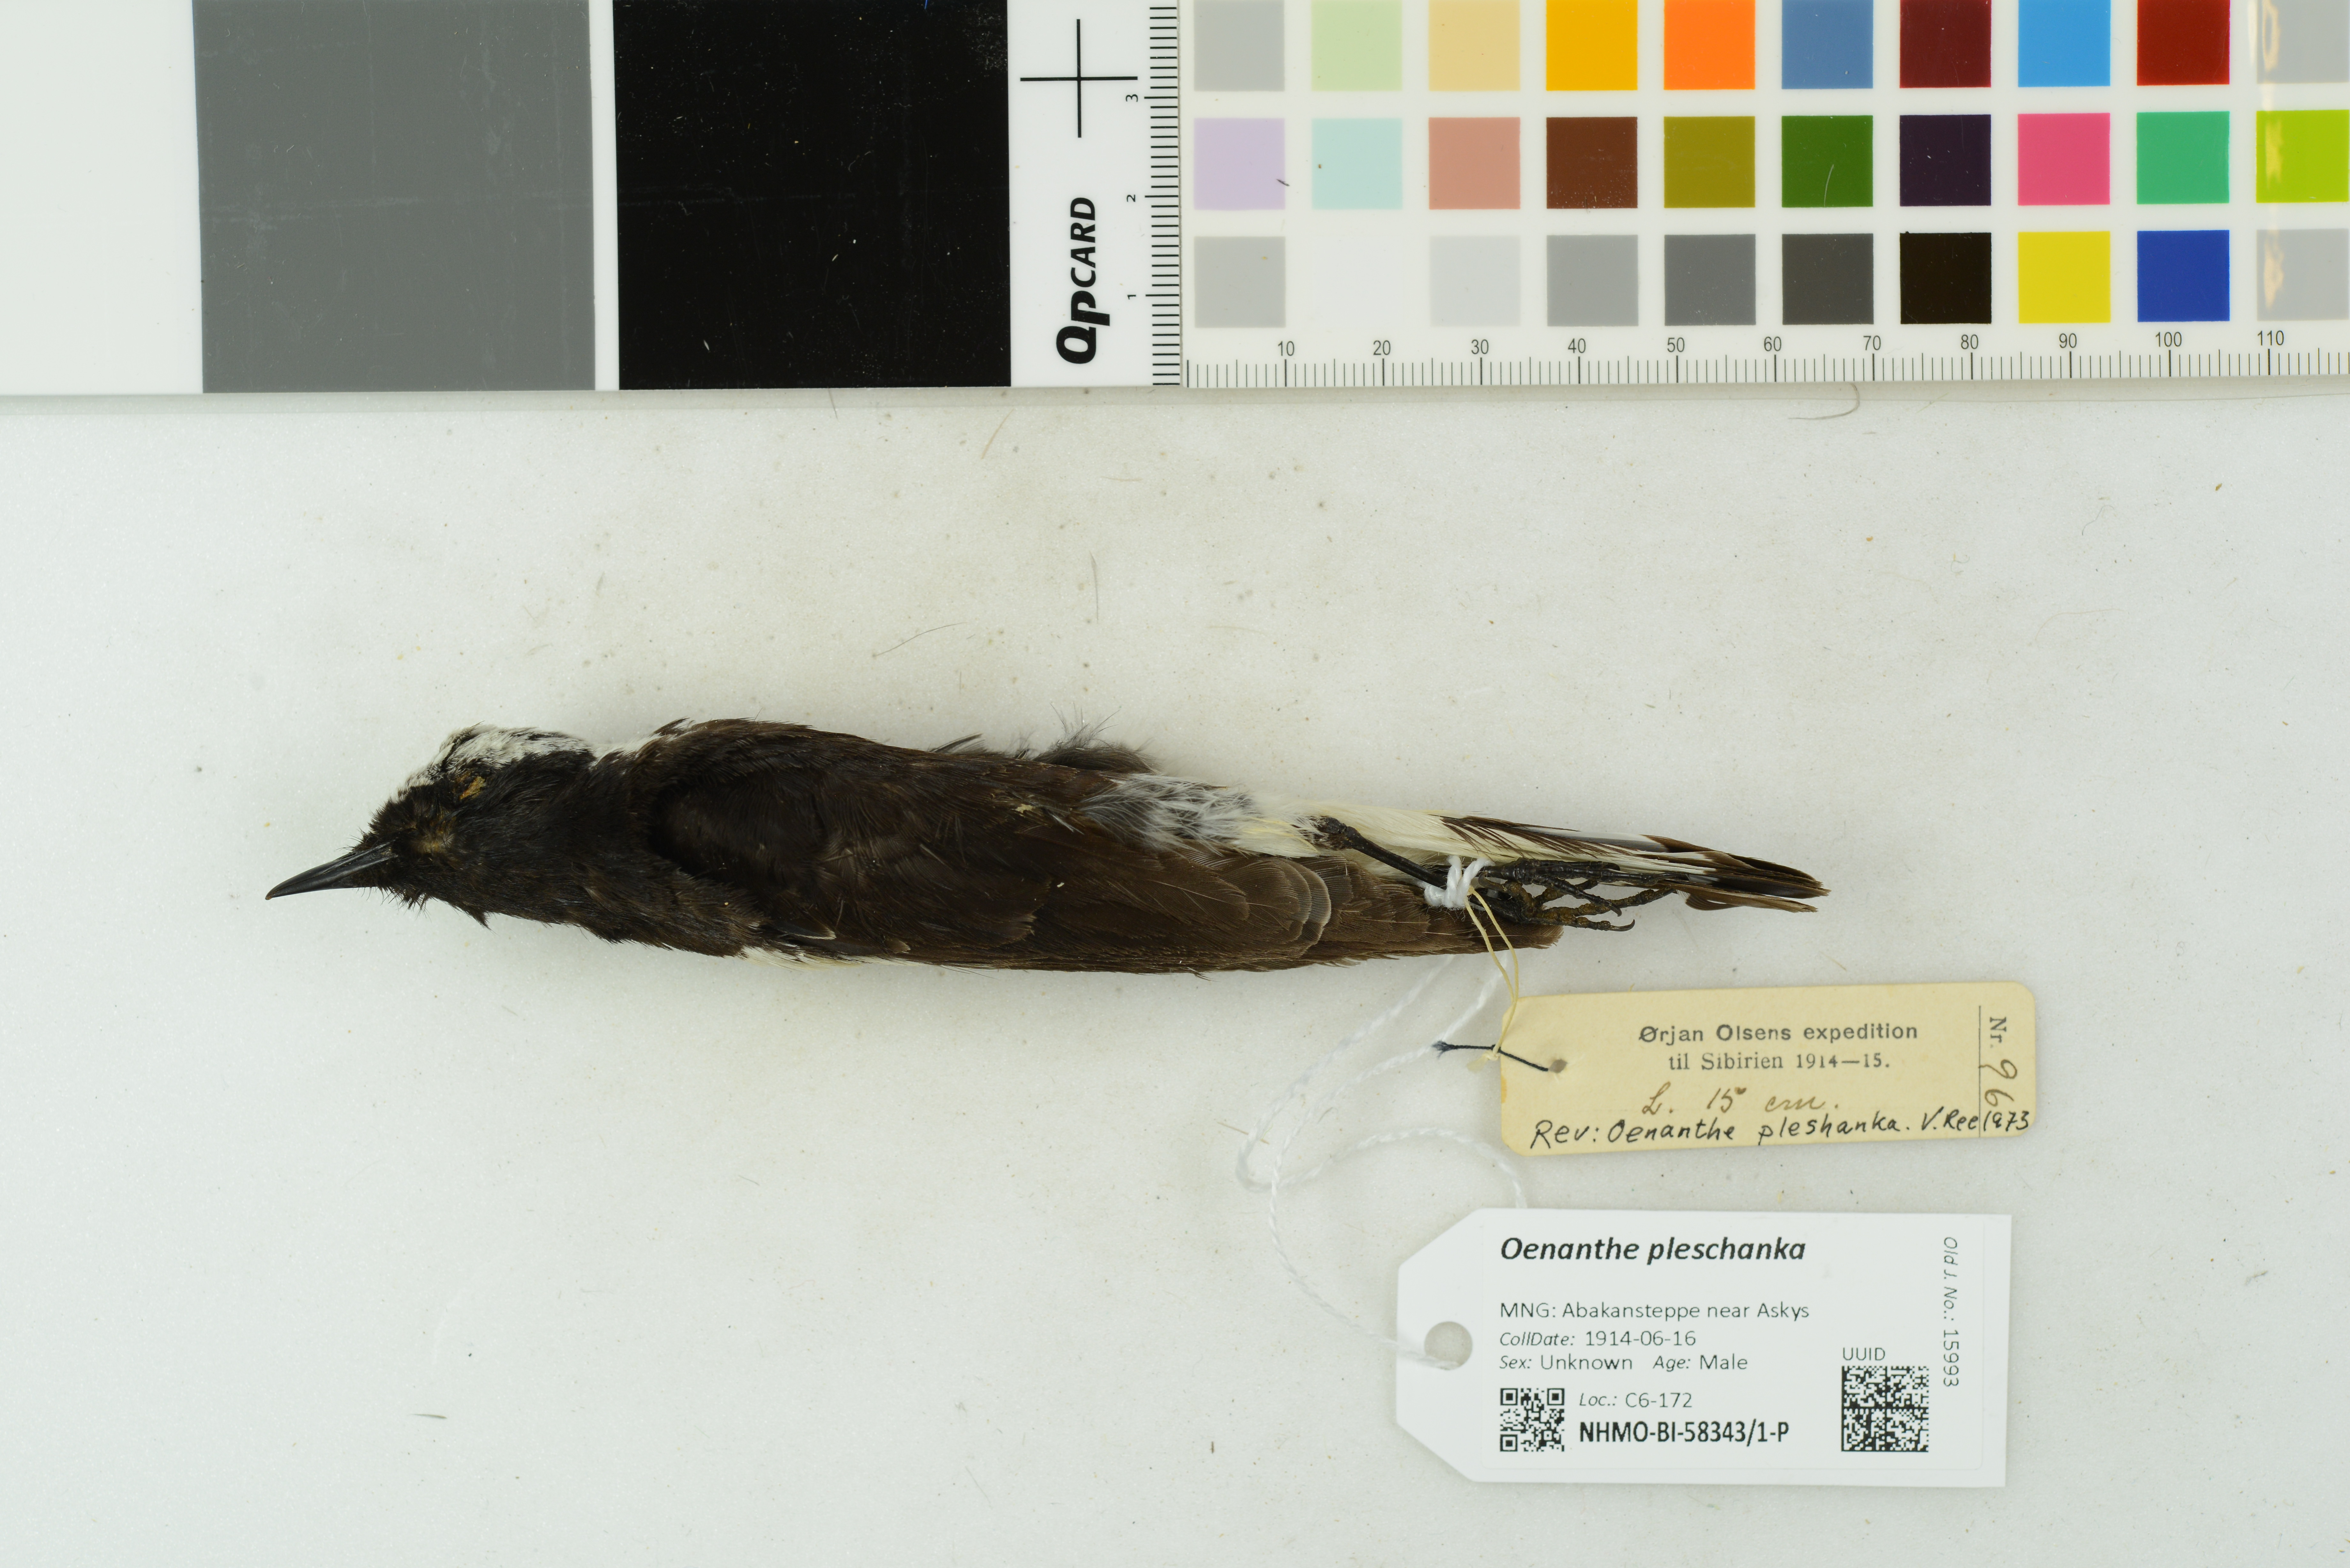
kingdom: Animalia
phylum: Chordata
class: Aves
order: Passeriformes
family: Muscicapidae
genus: Oenanthe
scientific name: Oenanthe pleschanka
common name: Pied wheatear
